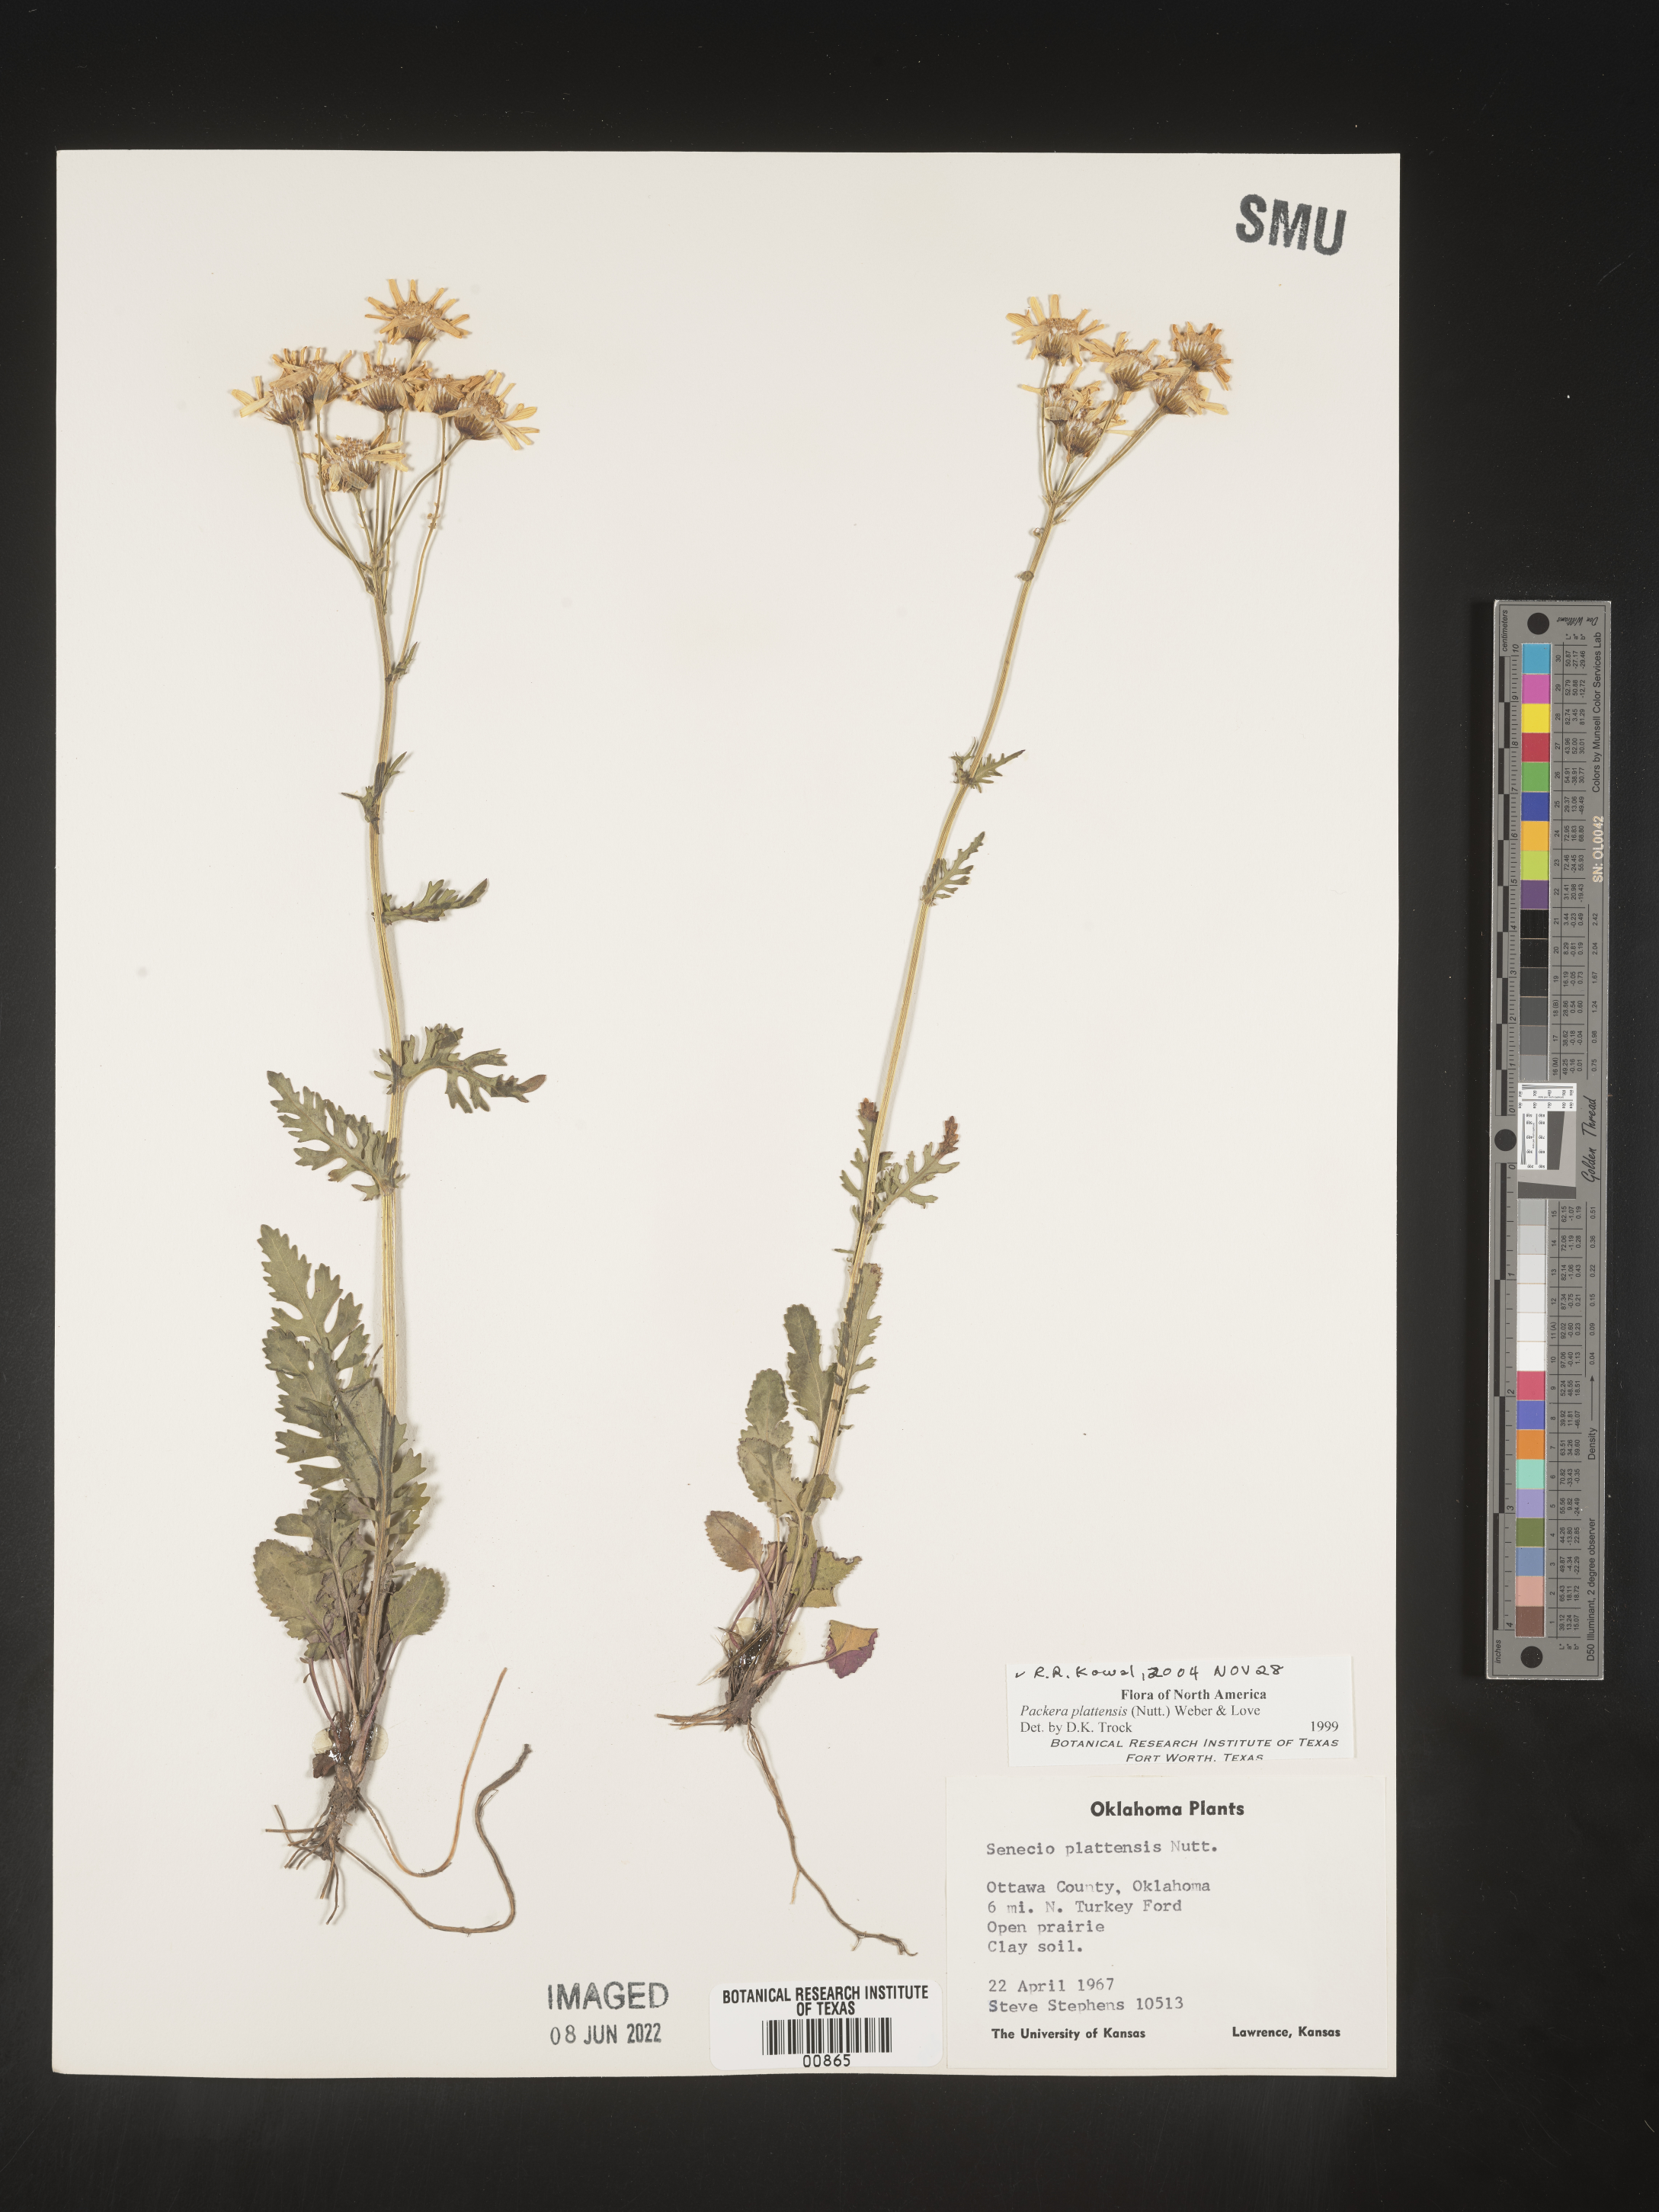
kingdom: Plantae
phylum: Tracheophyta
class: Magnoliopsida
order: Asterales
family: Asteraceae
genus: Packera
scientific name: Packera plattensis
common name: Prairie groundsel
